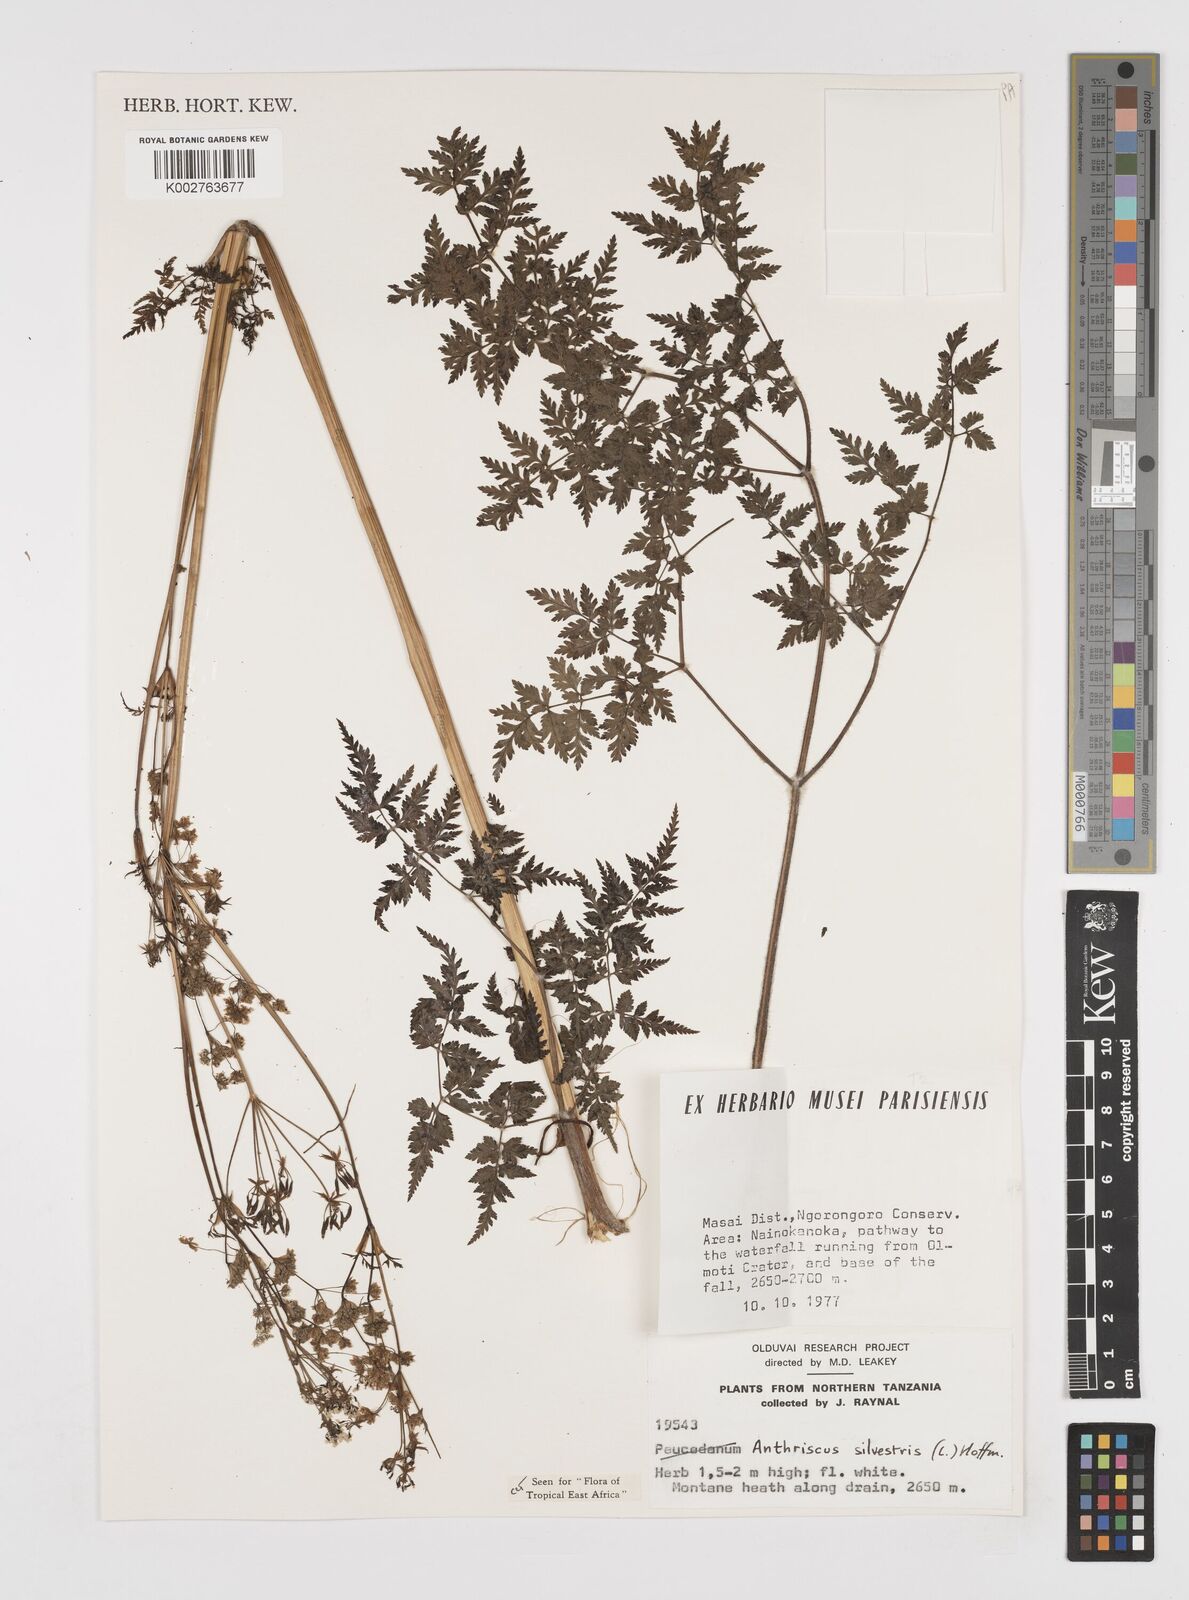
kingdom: Plantae
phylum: Tracheophyta
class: Magnoliopsida
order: Apiales
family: Apiaceae
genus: Anthriscus
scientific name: Anthriscus sylvestris
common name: Cow parsley
